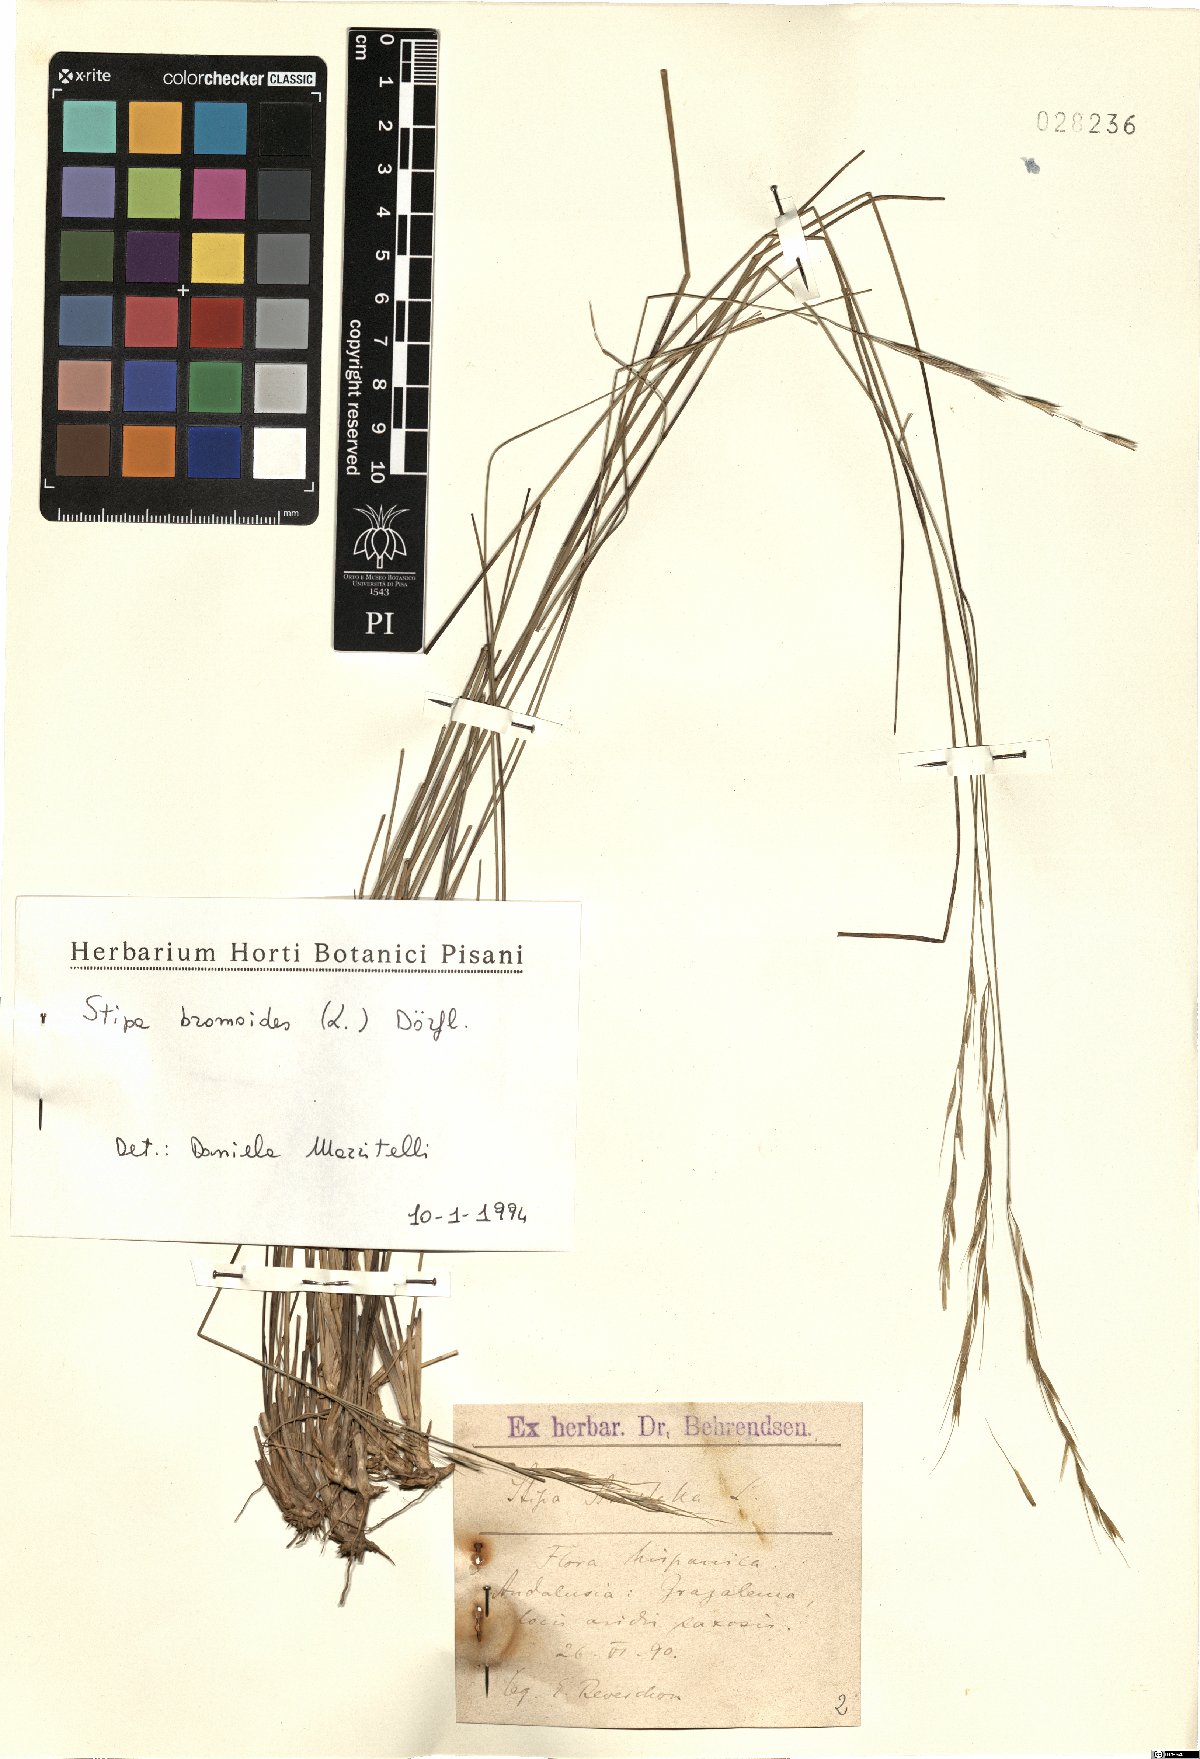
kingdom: Plantae
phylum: Tracheophyta
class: Liliopsida
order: Poales
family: Poaceae
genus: Achnatherum
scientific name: Achnatherum bromoides
